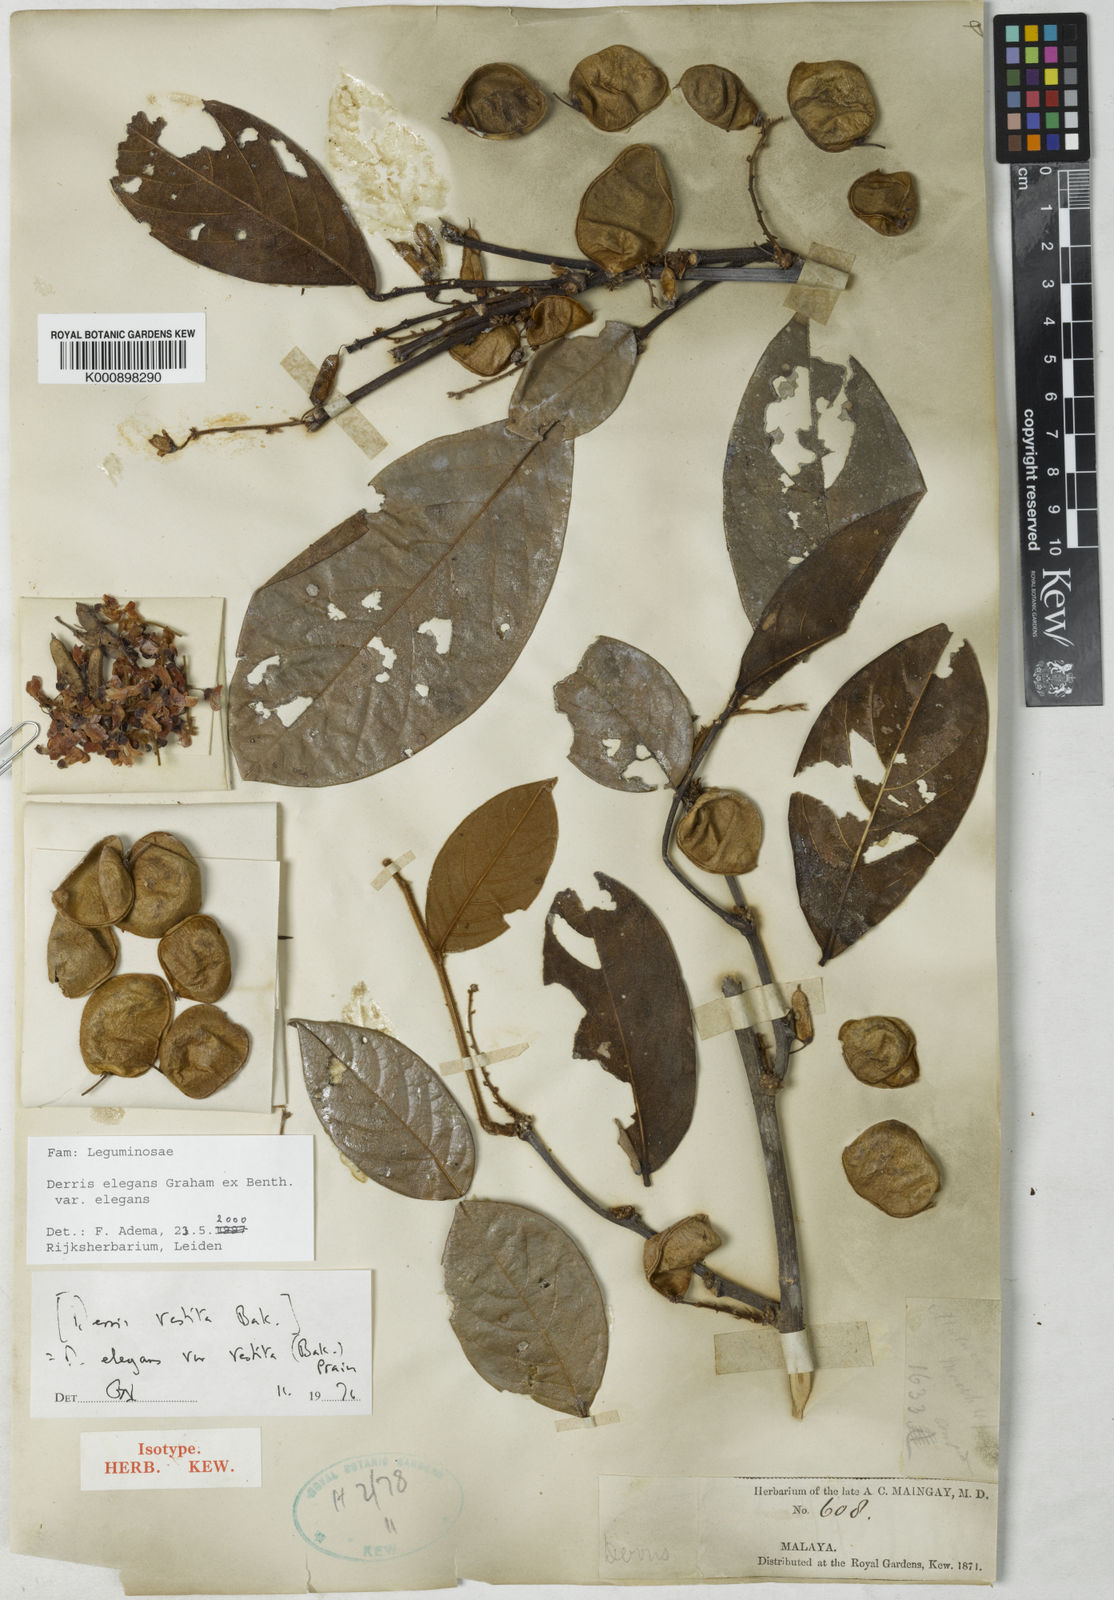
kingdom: Plantae
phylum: Tracheophyta
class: Magnoliopsida
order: Fabales
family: Fabaceae
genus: Derris
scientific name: Derris elegans
